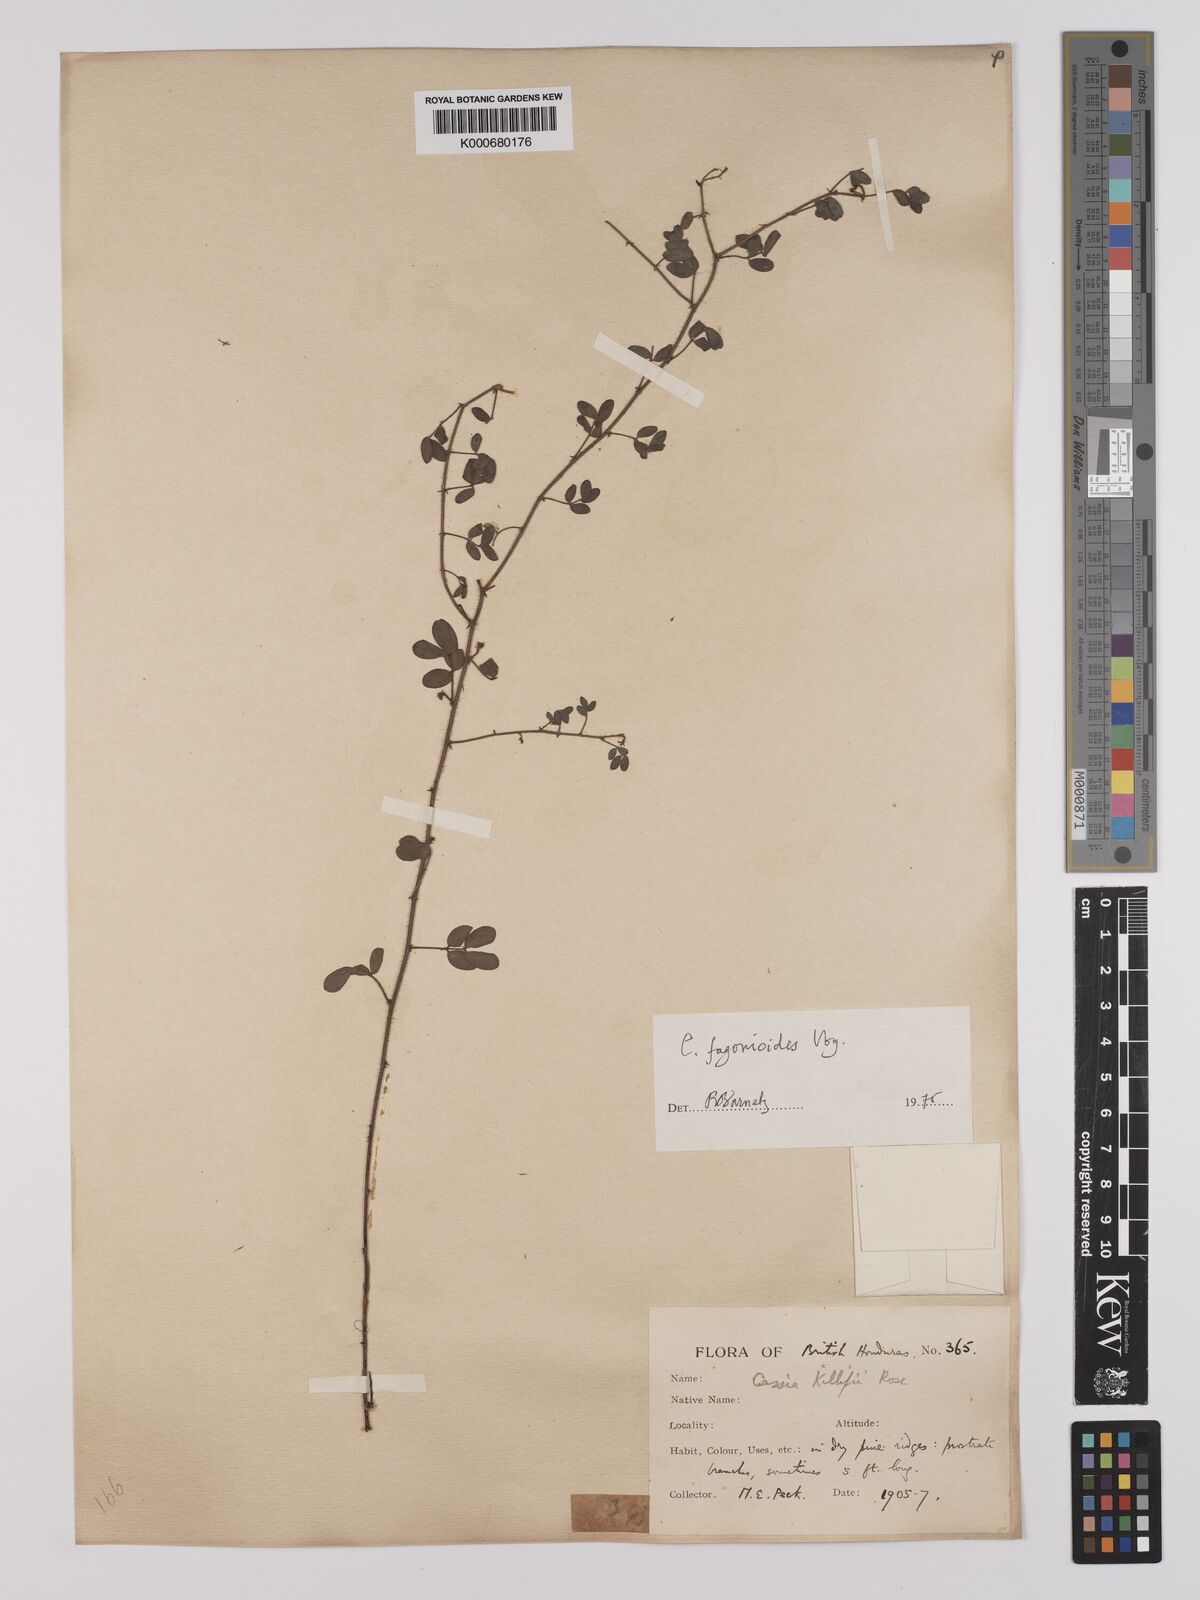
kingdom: Plantae
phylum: Tracheophyta
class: Magnoliopsida
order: Fabales
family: Fabaceae
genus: Chamaecrista
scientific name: Chamaecrista fagonioides
